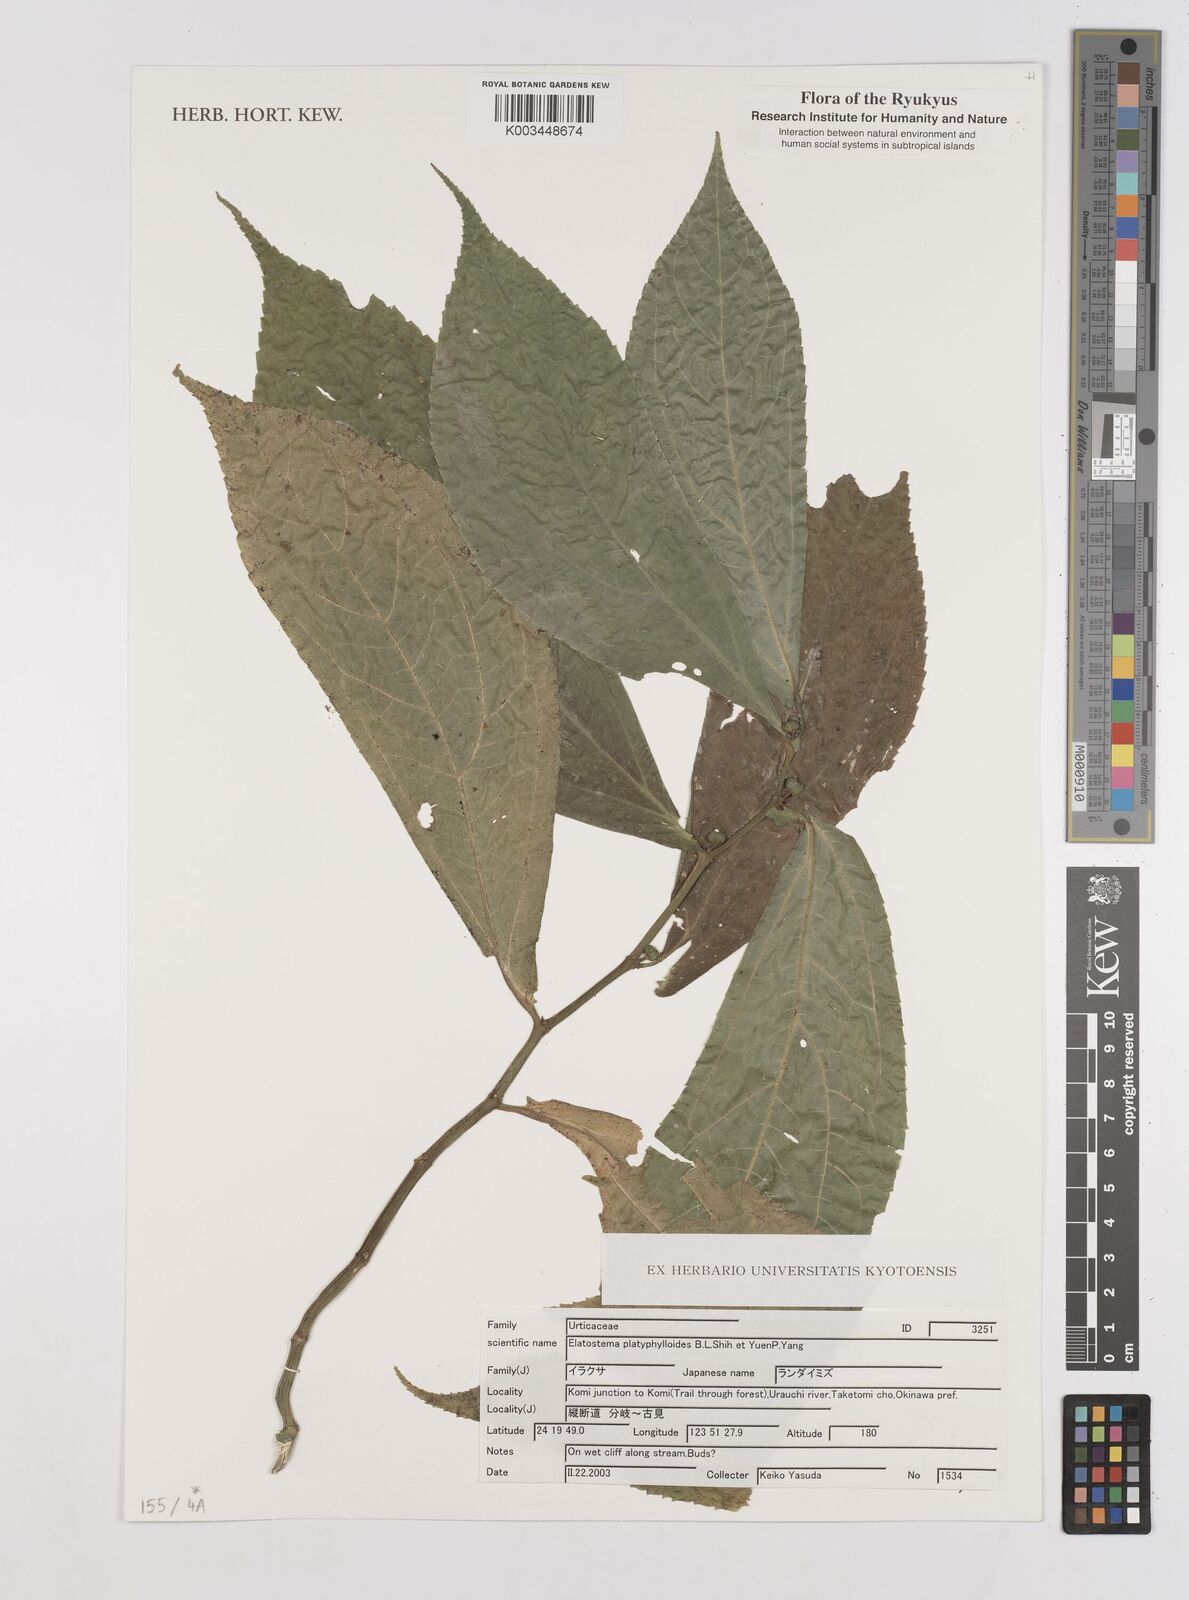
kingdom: Plantae
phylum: Tracheophyta
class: Magnoliopsida
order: Rosales
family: Urticaceae
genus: Elatostema
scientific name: Elatostema platyphyllum
